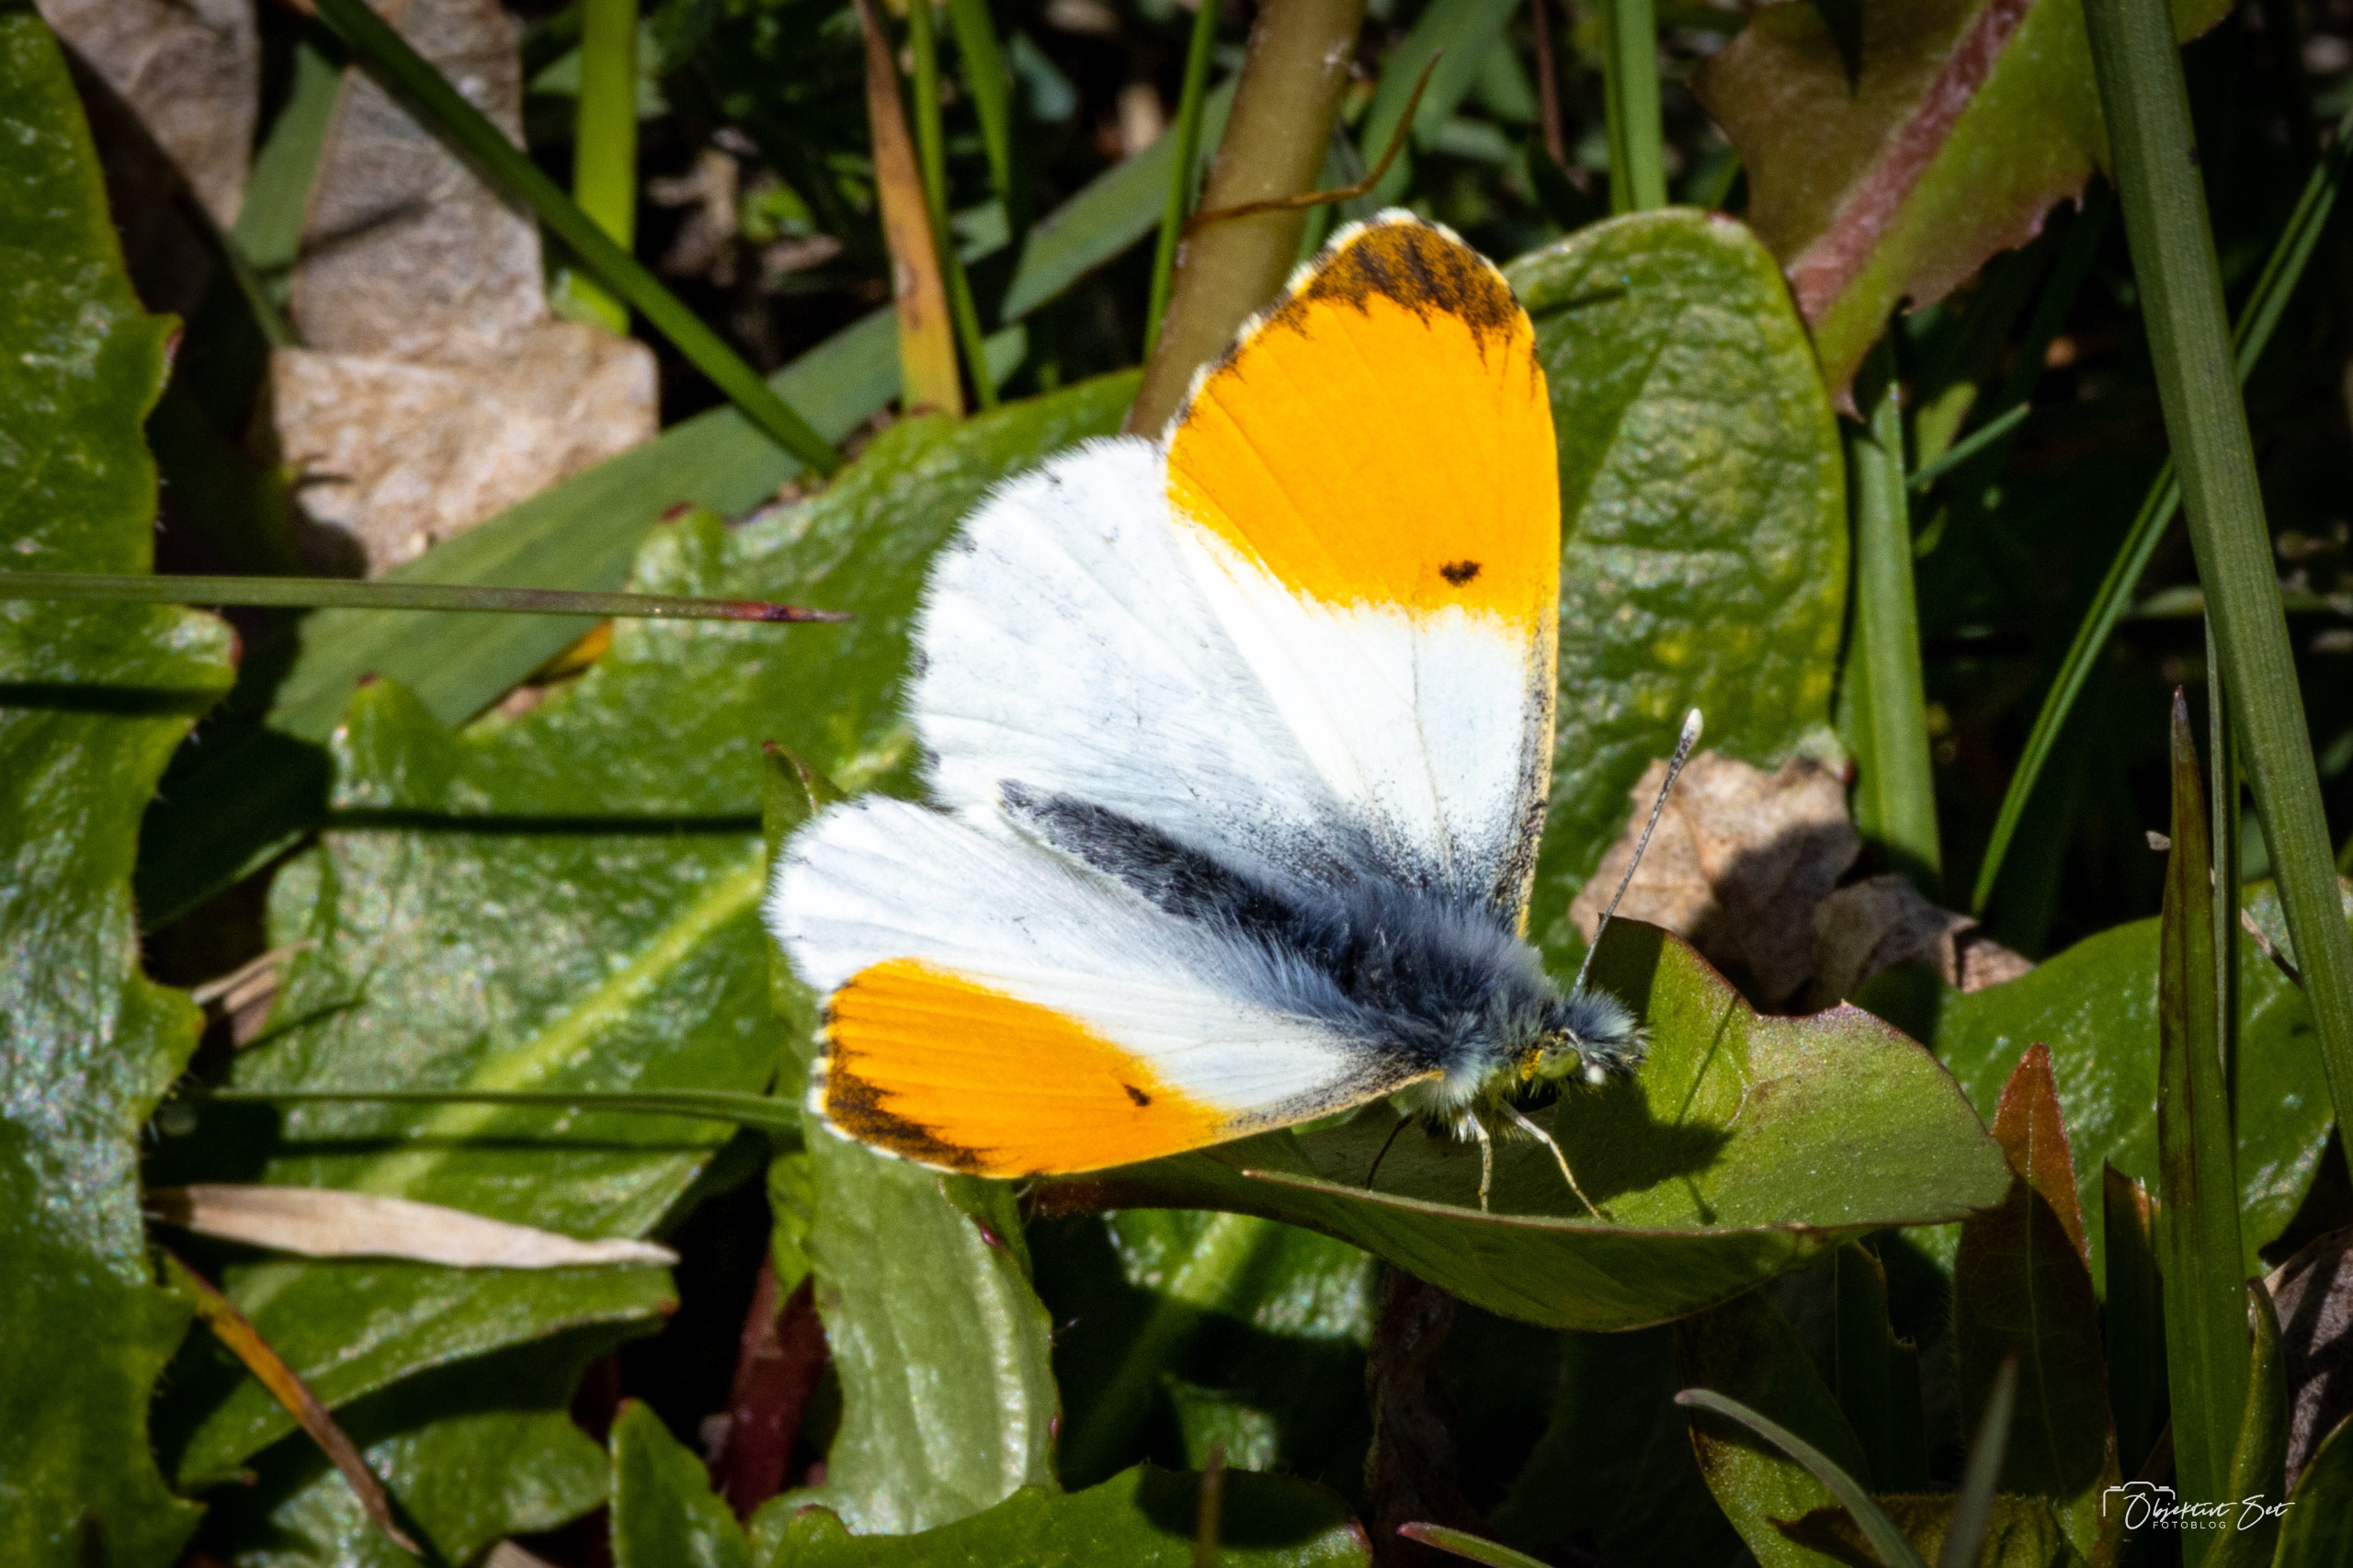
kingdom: Animalia
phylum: Arthropoda
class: Insecta
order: Lepidoptera
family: Pieridae
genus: Anthocharis
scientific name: Anthocharis cardamines
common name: Aurora
